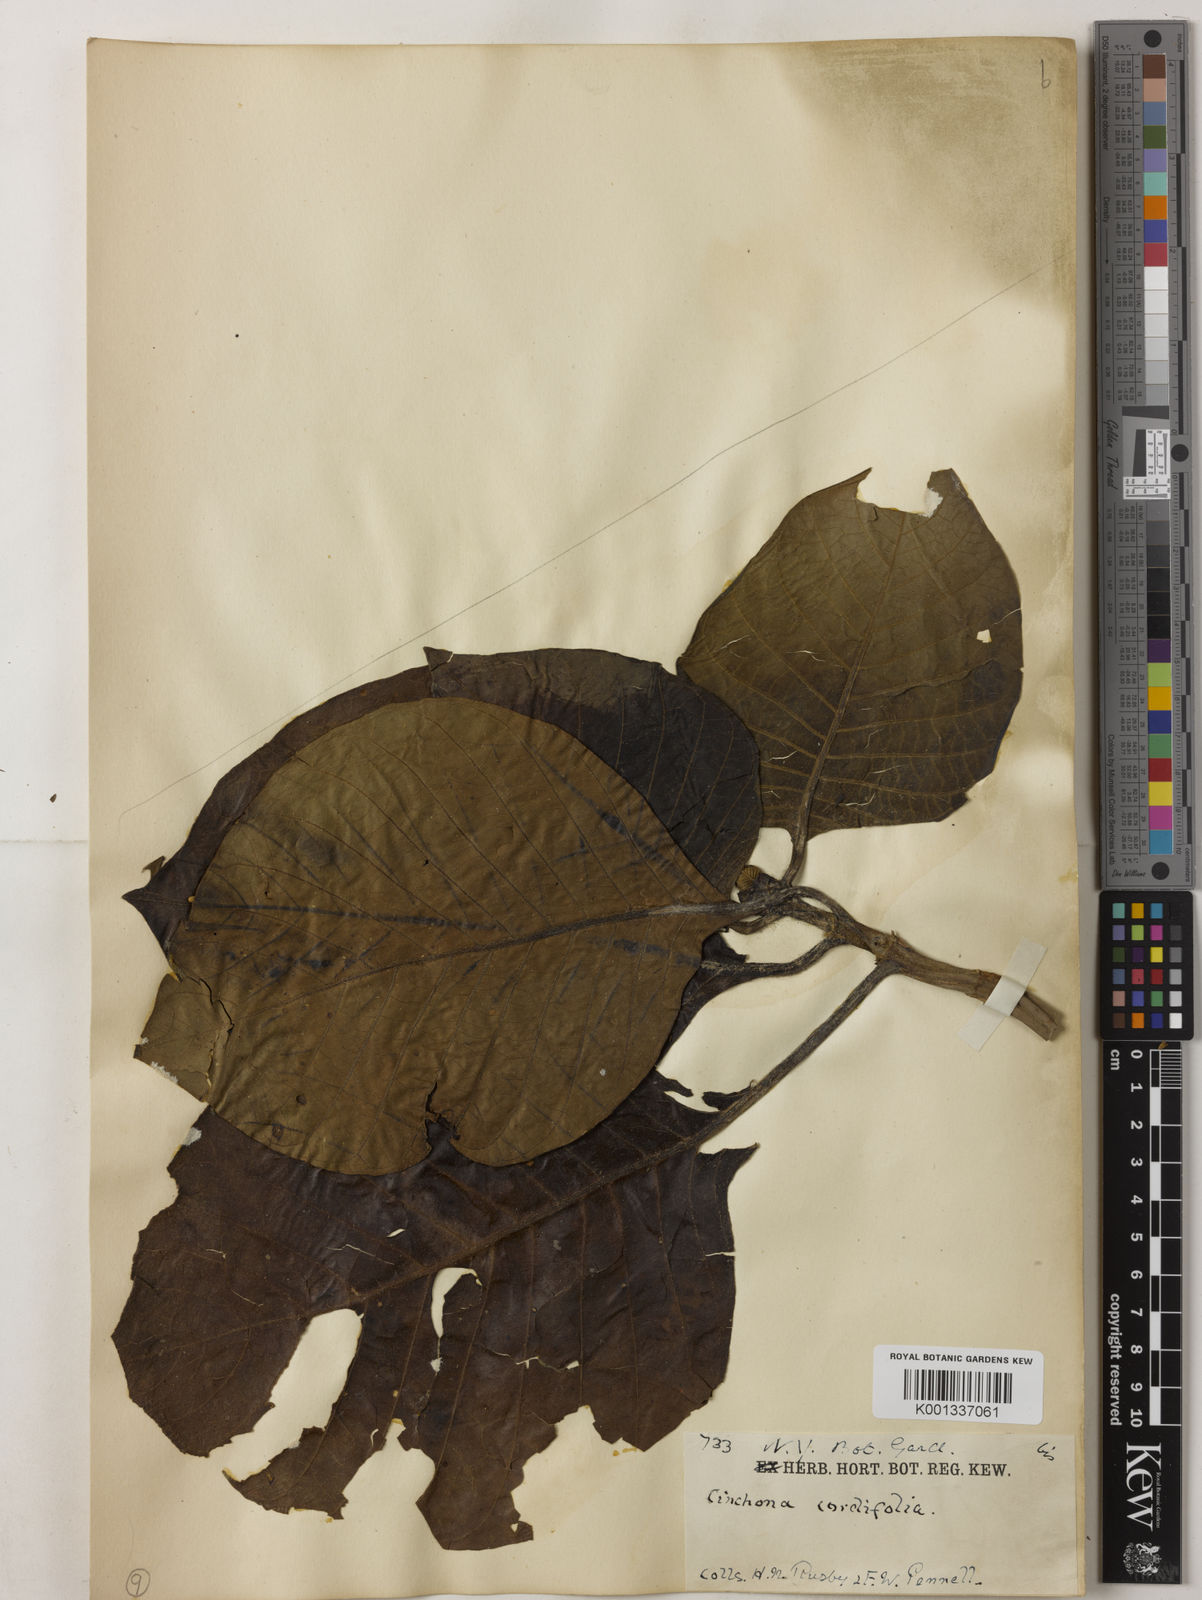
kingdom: Plantae
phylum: Tracheophyta
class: Magnoliopsida
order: Gentianales
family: Rubiaceae
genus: Cinchona
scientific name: Cinchona pubescens
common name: Quinine
